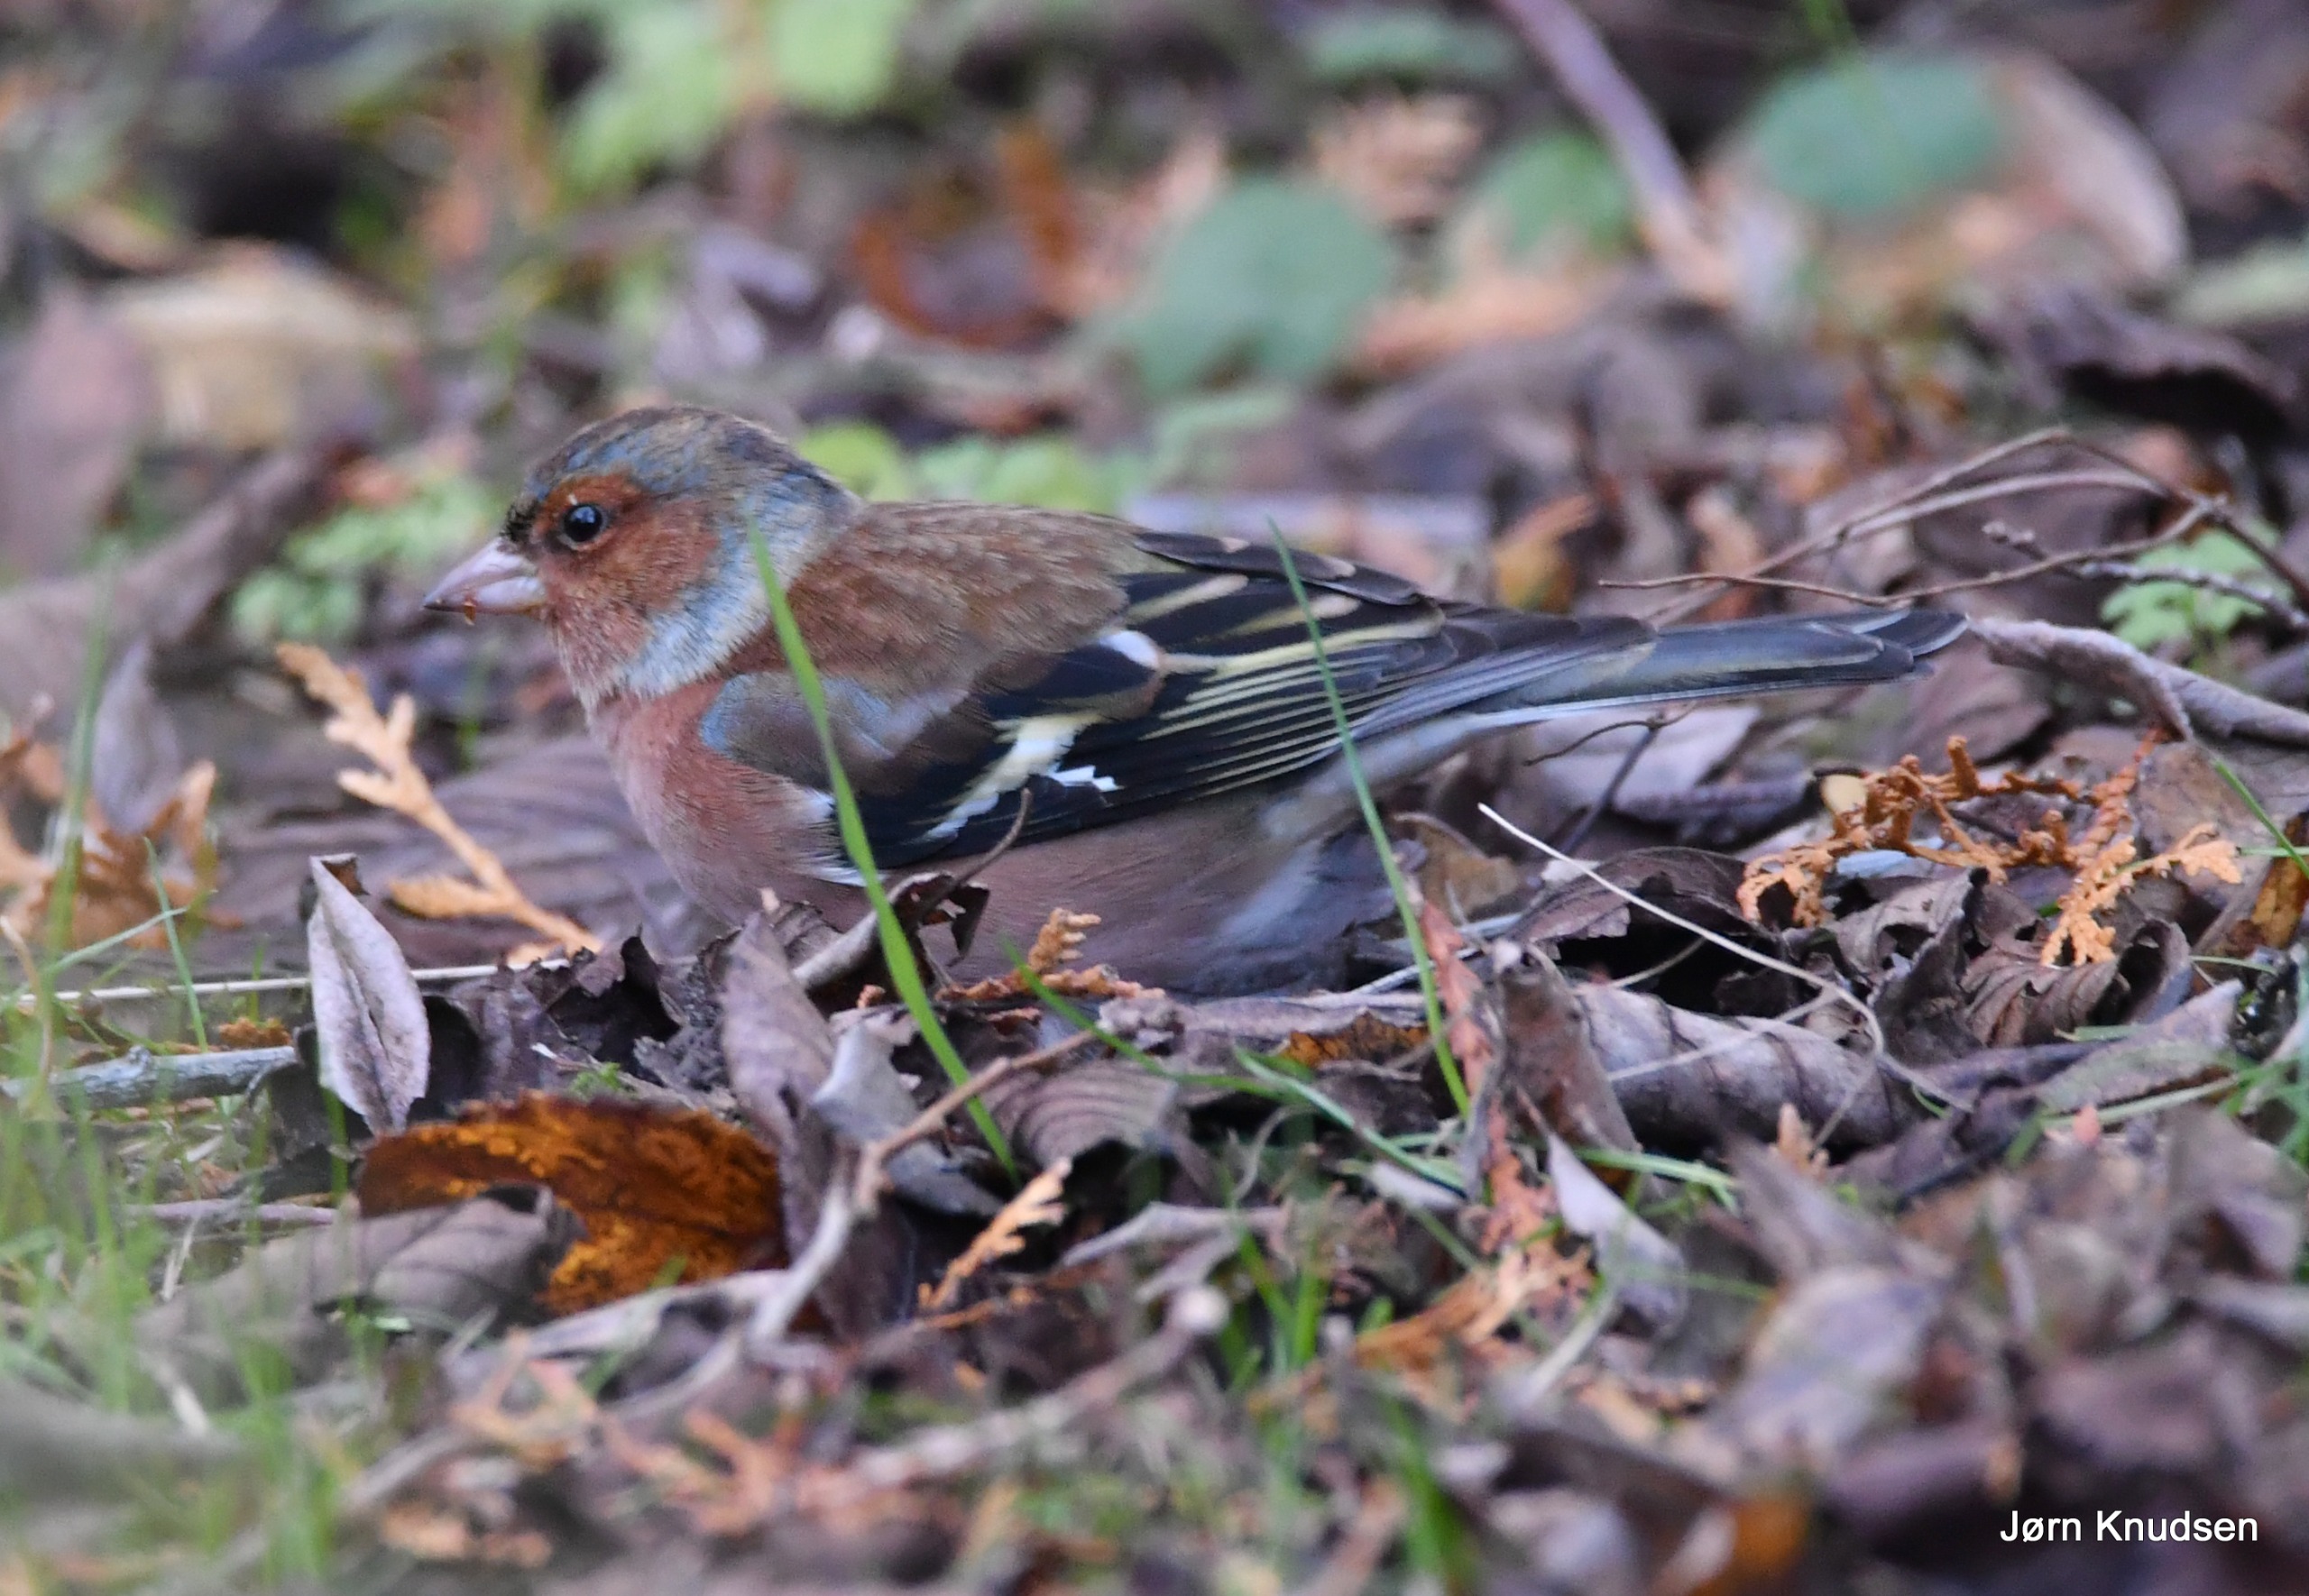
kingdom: Animalia
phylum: Chordata
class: Aves
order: Passeriformes
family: Fringillidae
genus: Fringilla
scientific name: Fringilla coelebs
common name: Bogfinke
